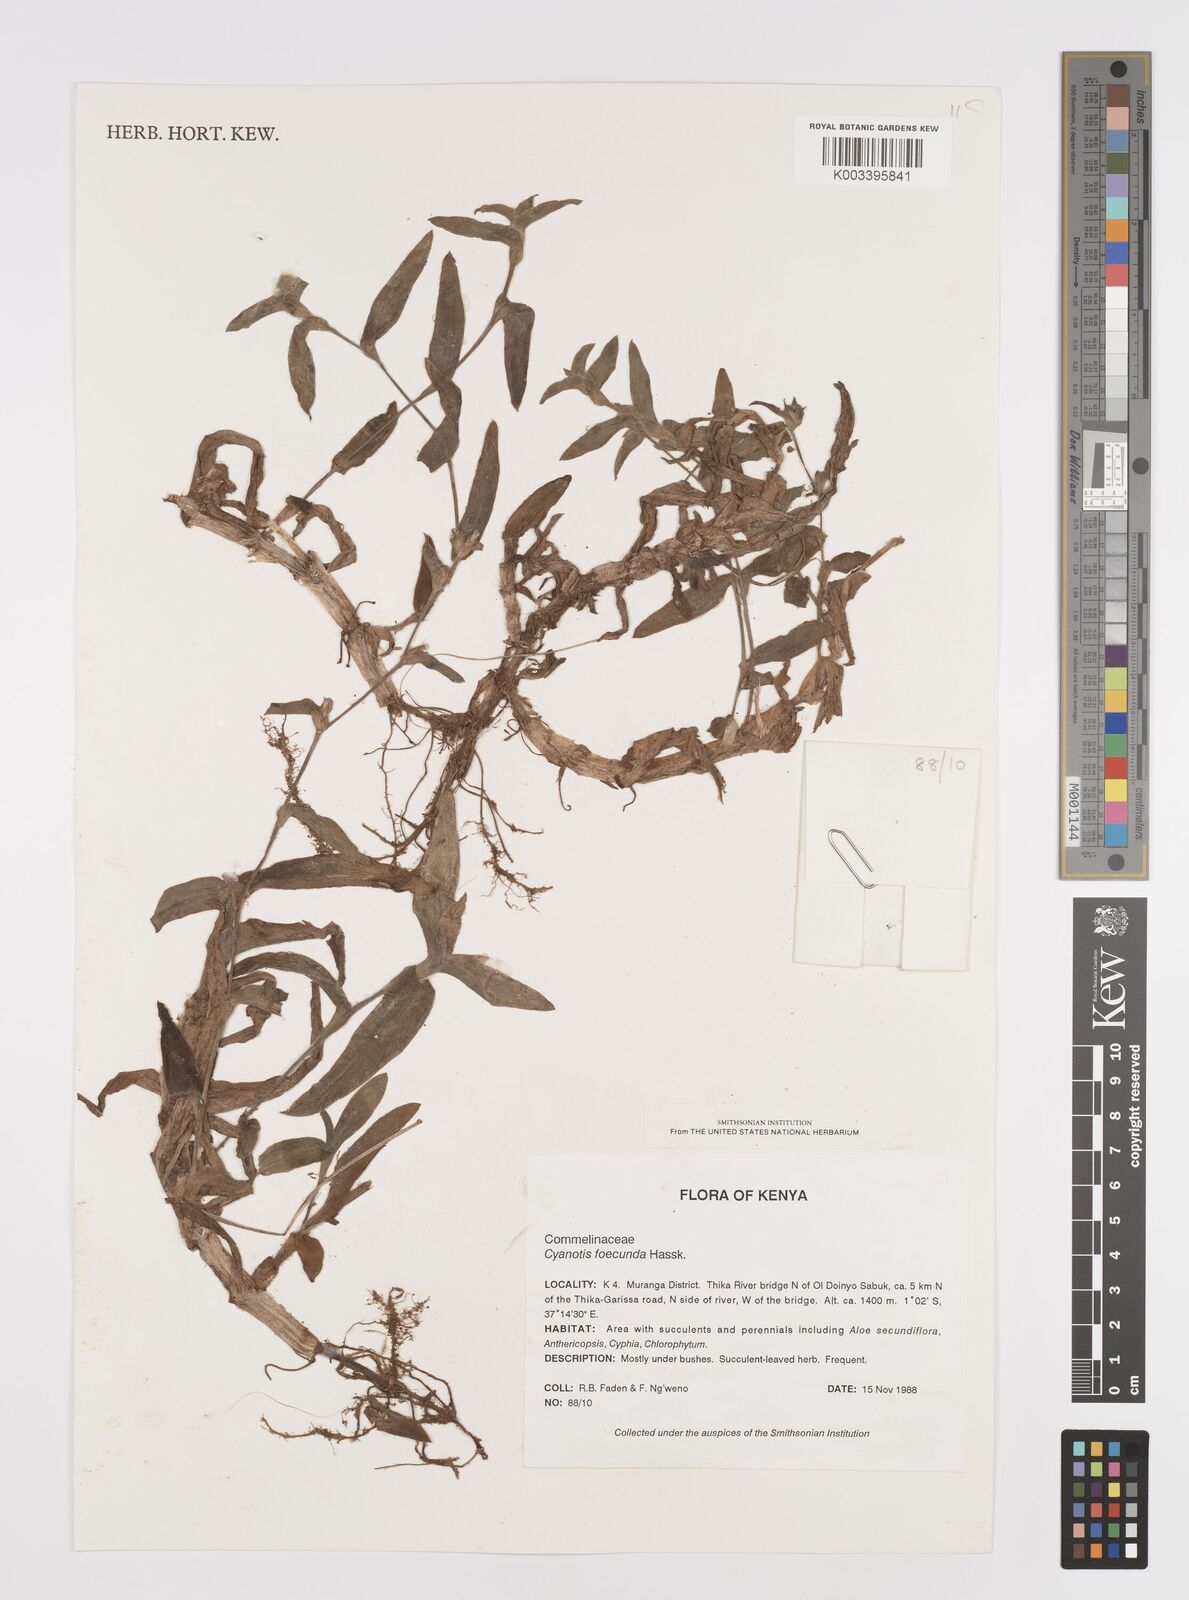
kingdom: Plantae
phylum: Tracheophyta
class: Liliopsida
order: Commelinales
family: Commelinaceae
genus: Cyanotis
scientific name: Cyanotis foecunda
